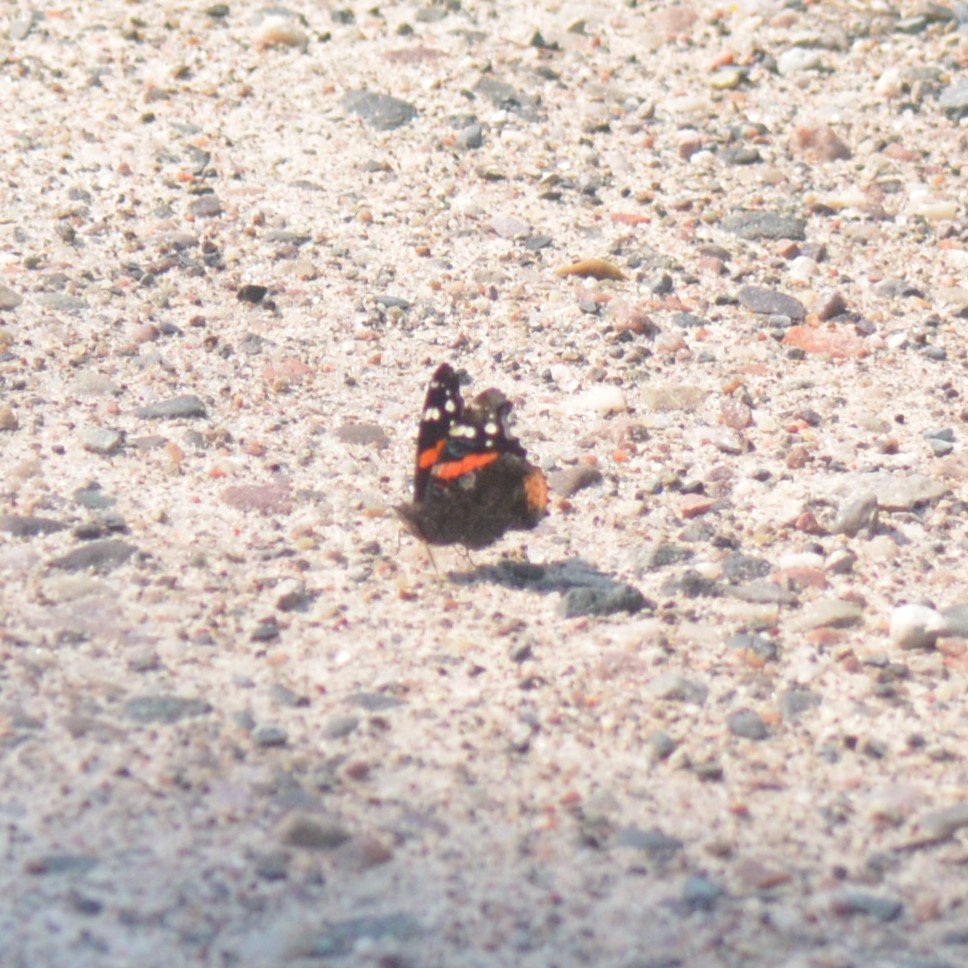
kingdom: Animalia
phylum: Arthropoda
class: Insecta
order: Lepidoptera
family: Nymphalidae
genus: Vanessa
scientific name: Vanessa atalanta
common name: Red Admiral
